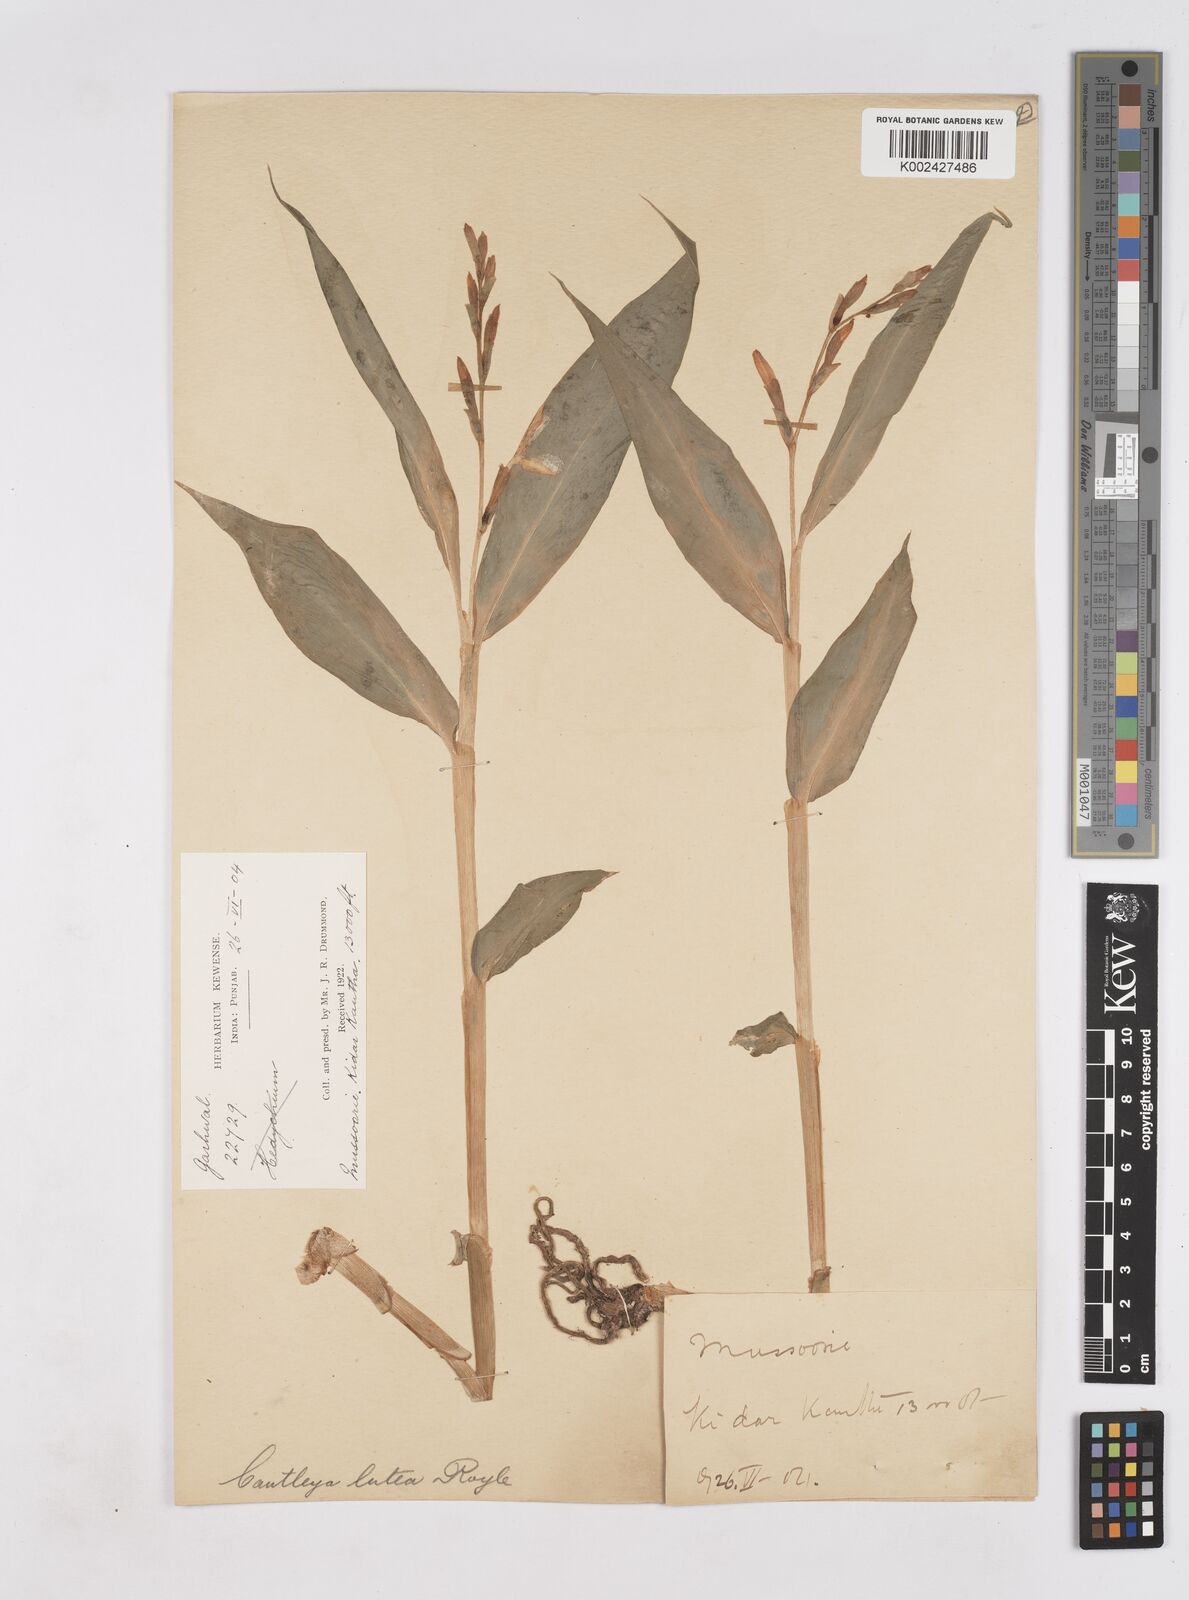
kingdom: Plantae
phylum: Tracheophyta
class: Liliopsida
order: Zingiberales
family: Zingiberaceae
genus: Cautleya
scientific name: Cautleya gracilis
